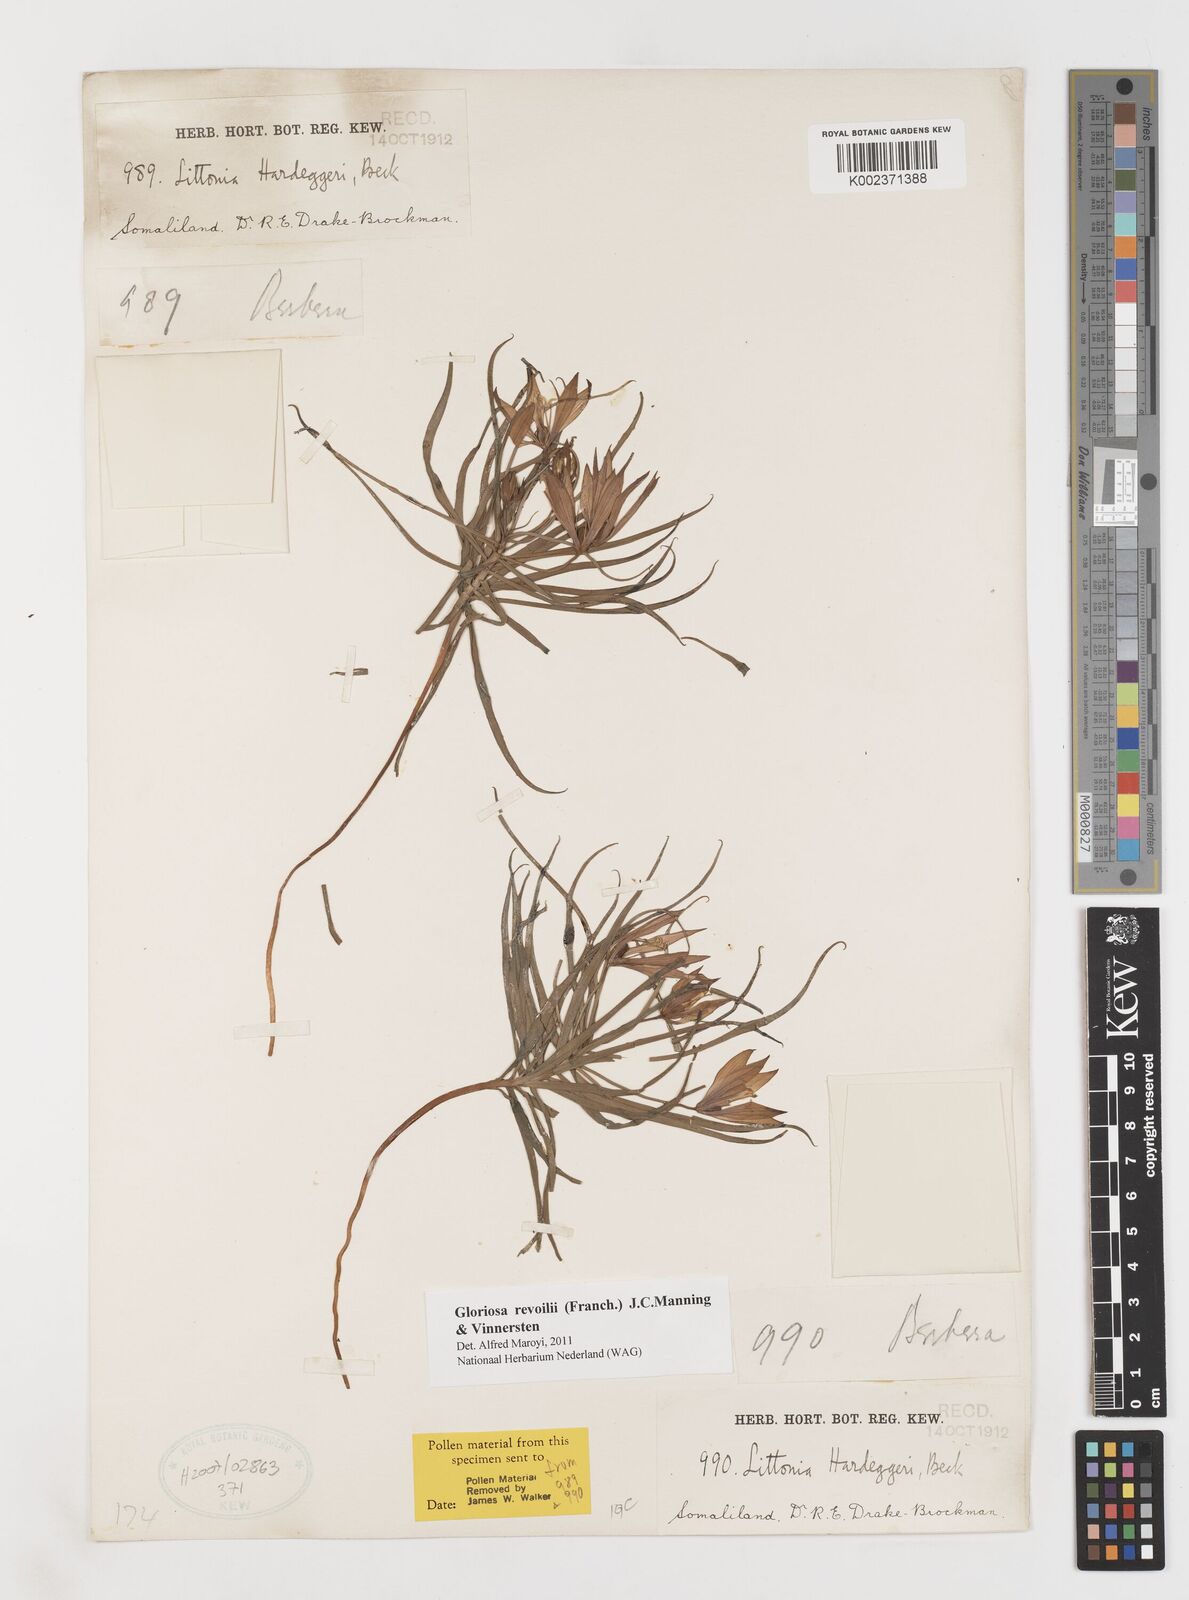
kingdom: Plantae
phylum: Tracheophyta
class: Liliopsida
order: Liliales
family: Colchicaceae
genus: Gloriosa
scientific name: Gloriosa revoilii
